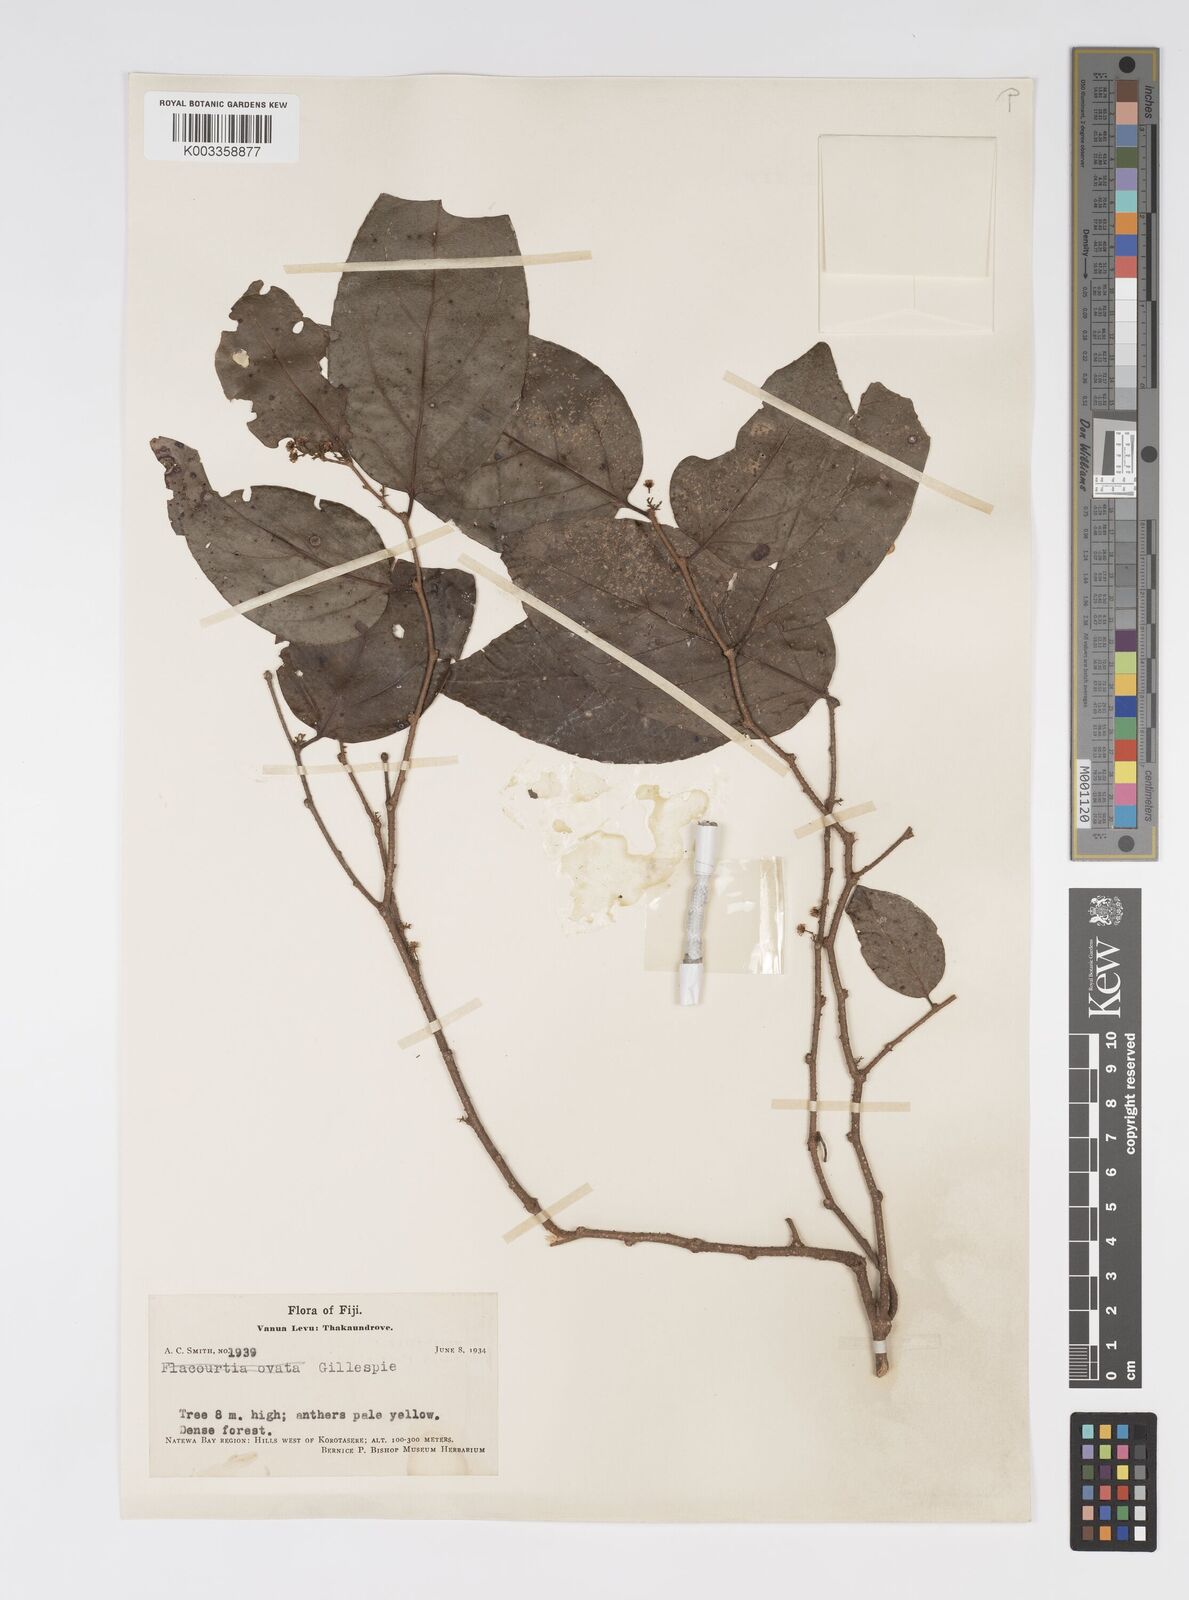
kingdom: Plantae
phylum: Tracheophyta
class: Magnoliopsida
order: Malpighiales
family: Salicaceae
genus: Xylosma
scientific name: Xylosma simulans
